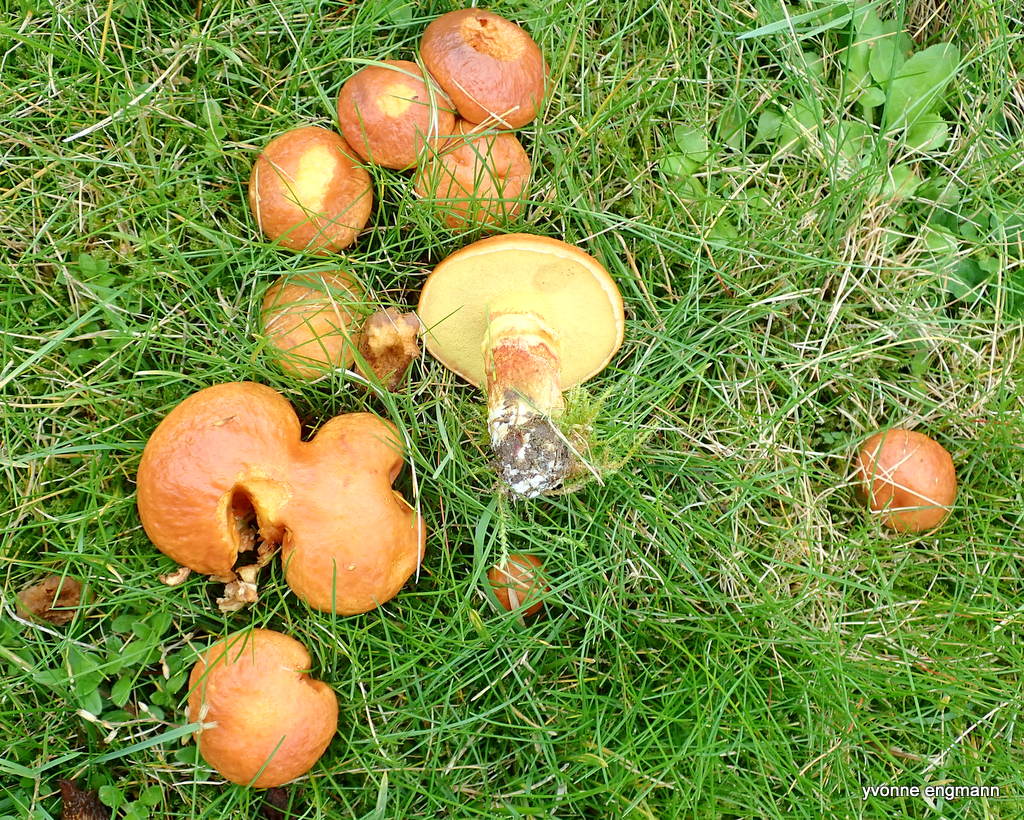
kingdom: Fungi
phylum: Basidiomycota
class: Agaricomycetes
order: Boletales
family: Suillaceae
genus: Suillus
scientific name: Suillus grevillei
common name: lærke-slimrørhat
